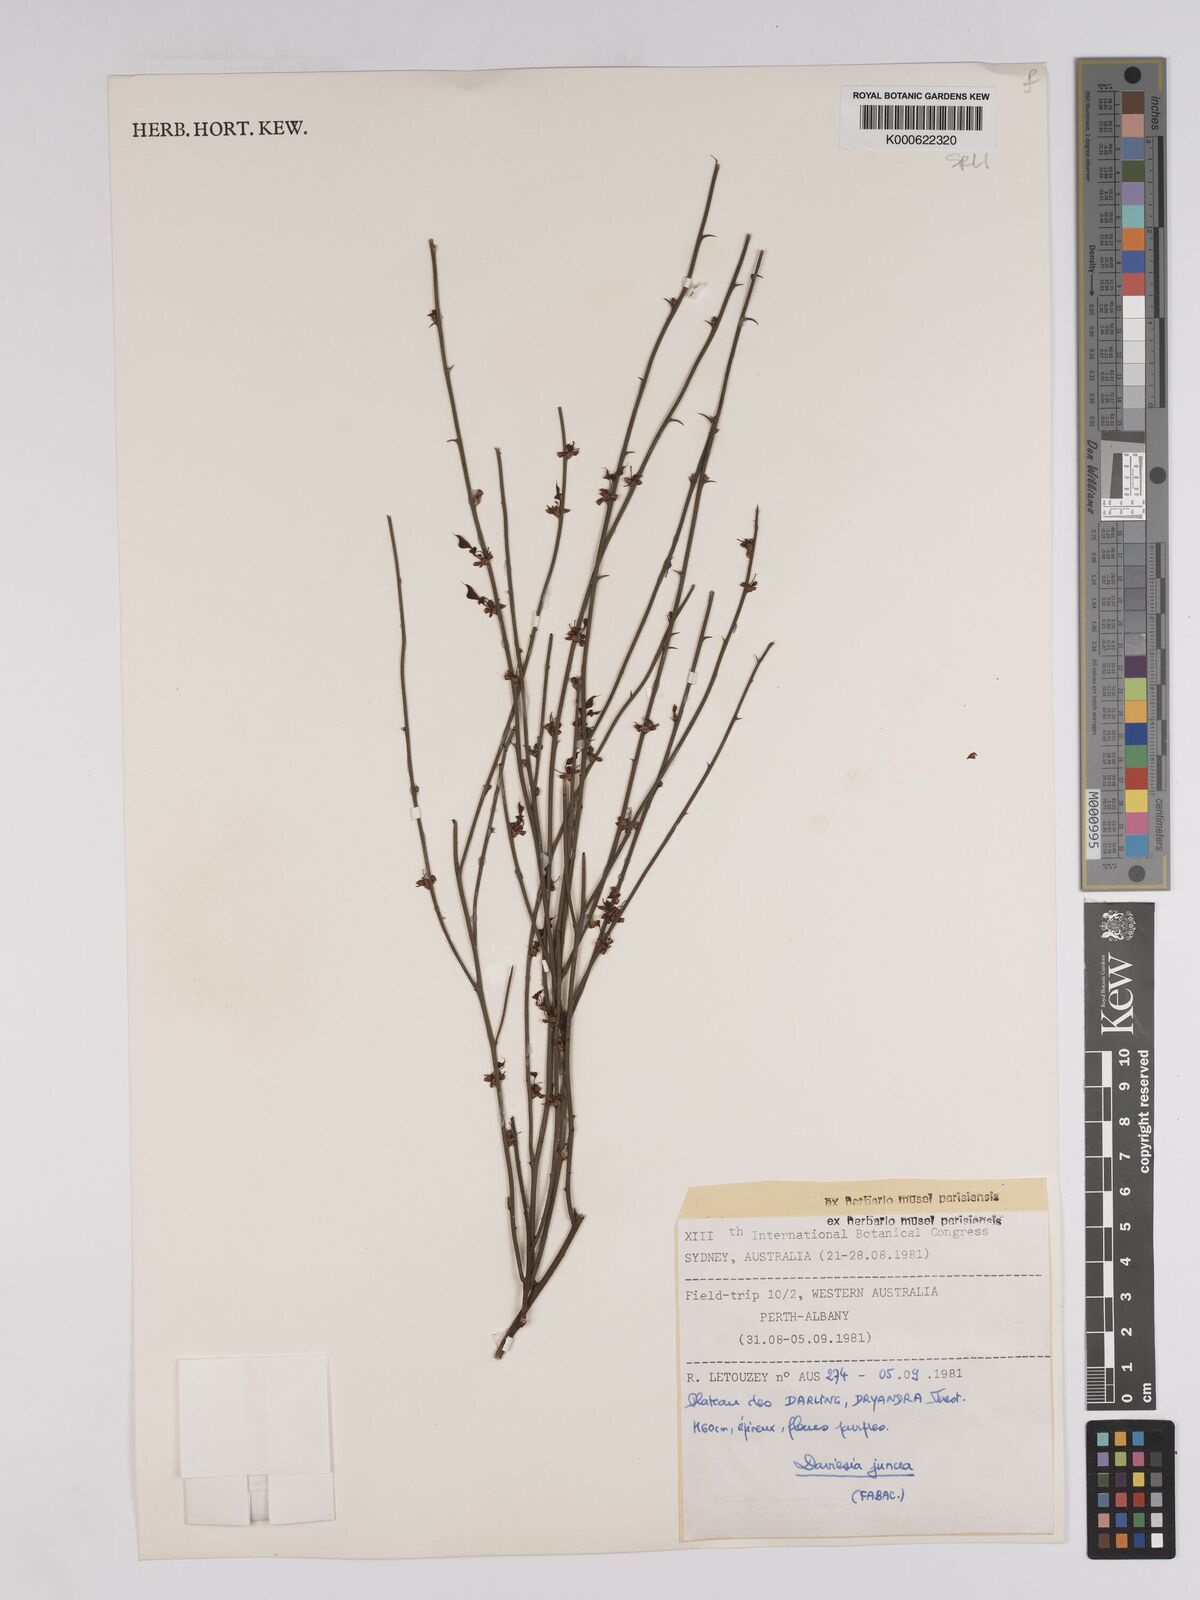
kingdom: Plantae
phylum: Tracheophyta
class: Magnoliopsida
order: Fabales
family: Fabaceae
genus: Daviesia
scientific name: Daviesia gracilis
